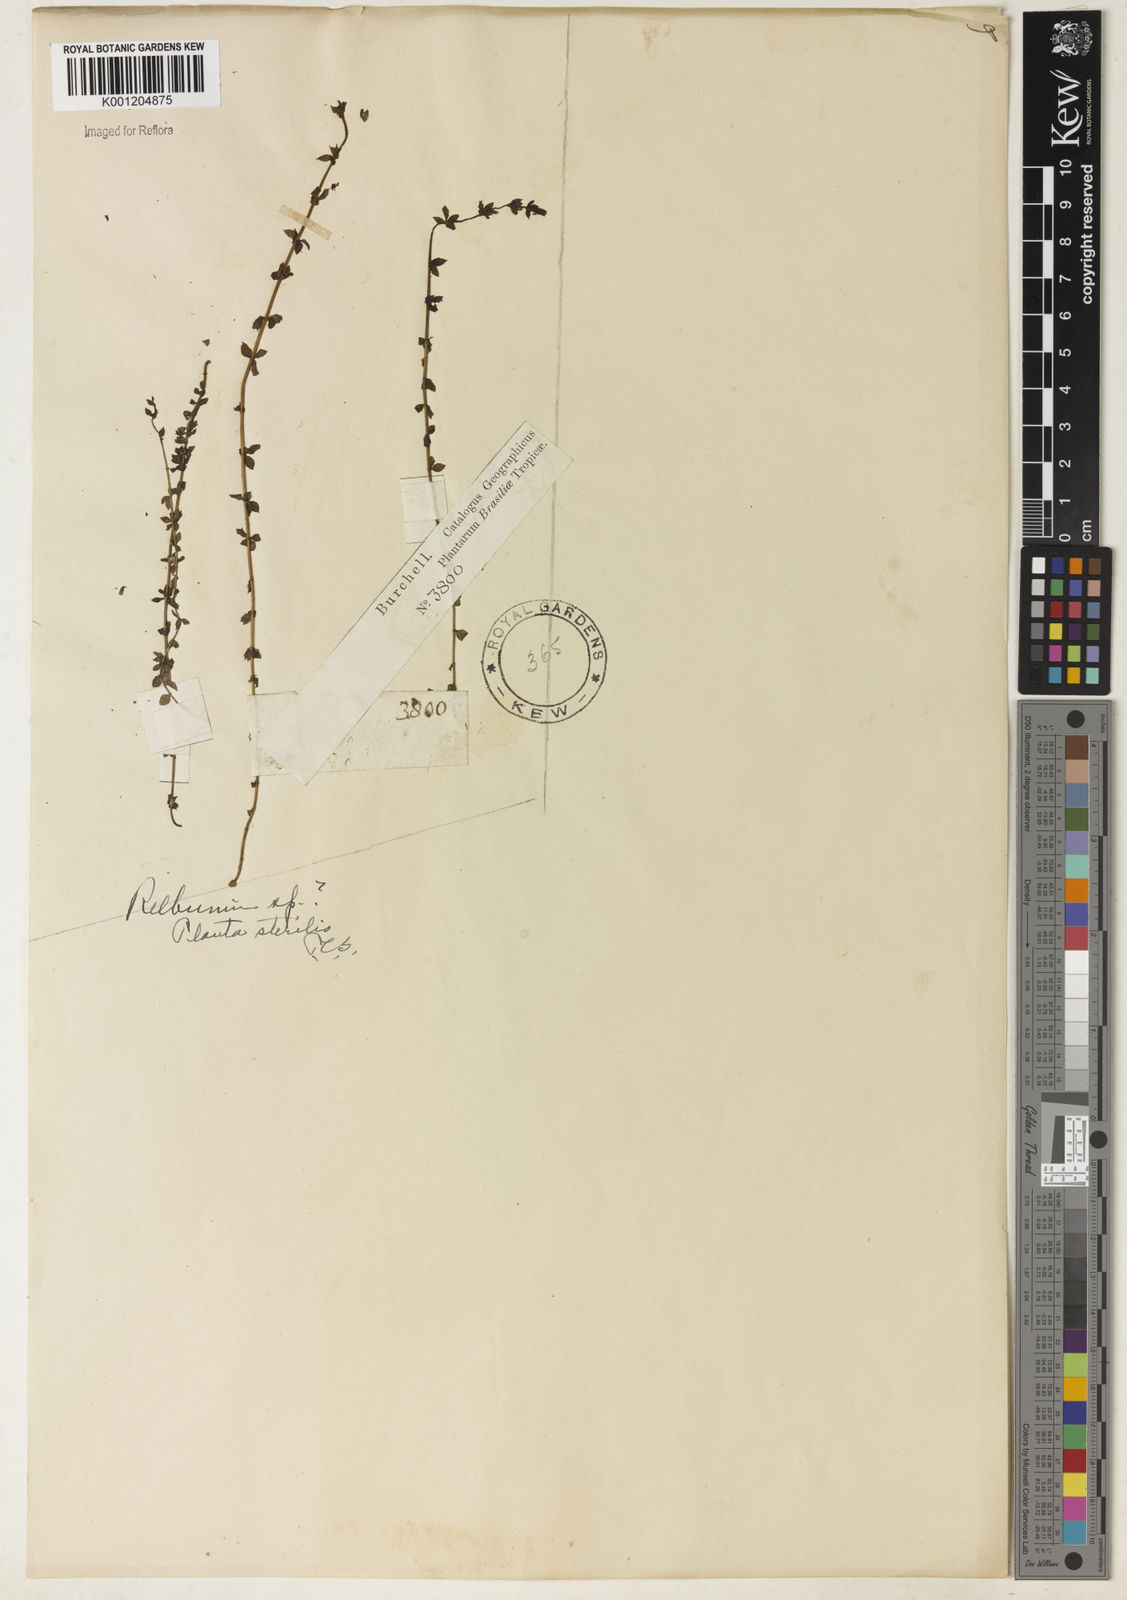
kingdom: Plantae
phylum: Tracheophyta
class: Magnoliopsida
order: Gentianales
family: Rubiaceae
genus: Galium
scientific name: Galium
